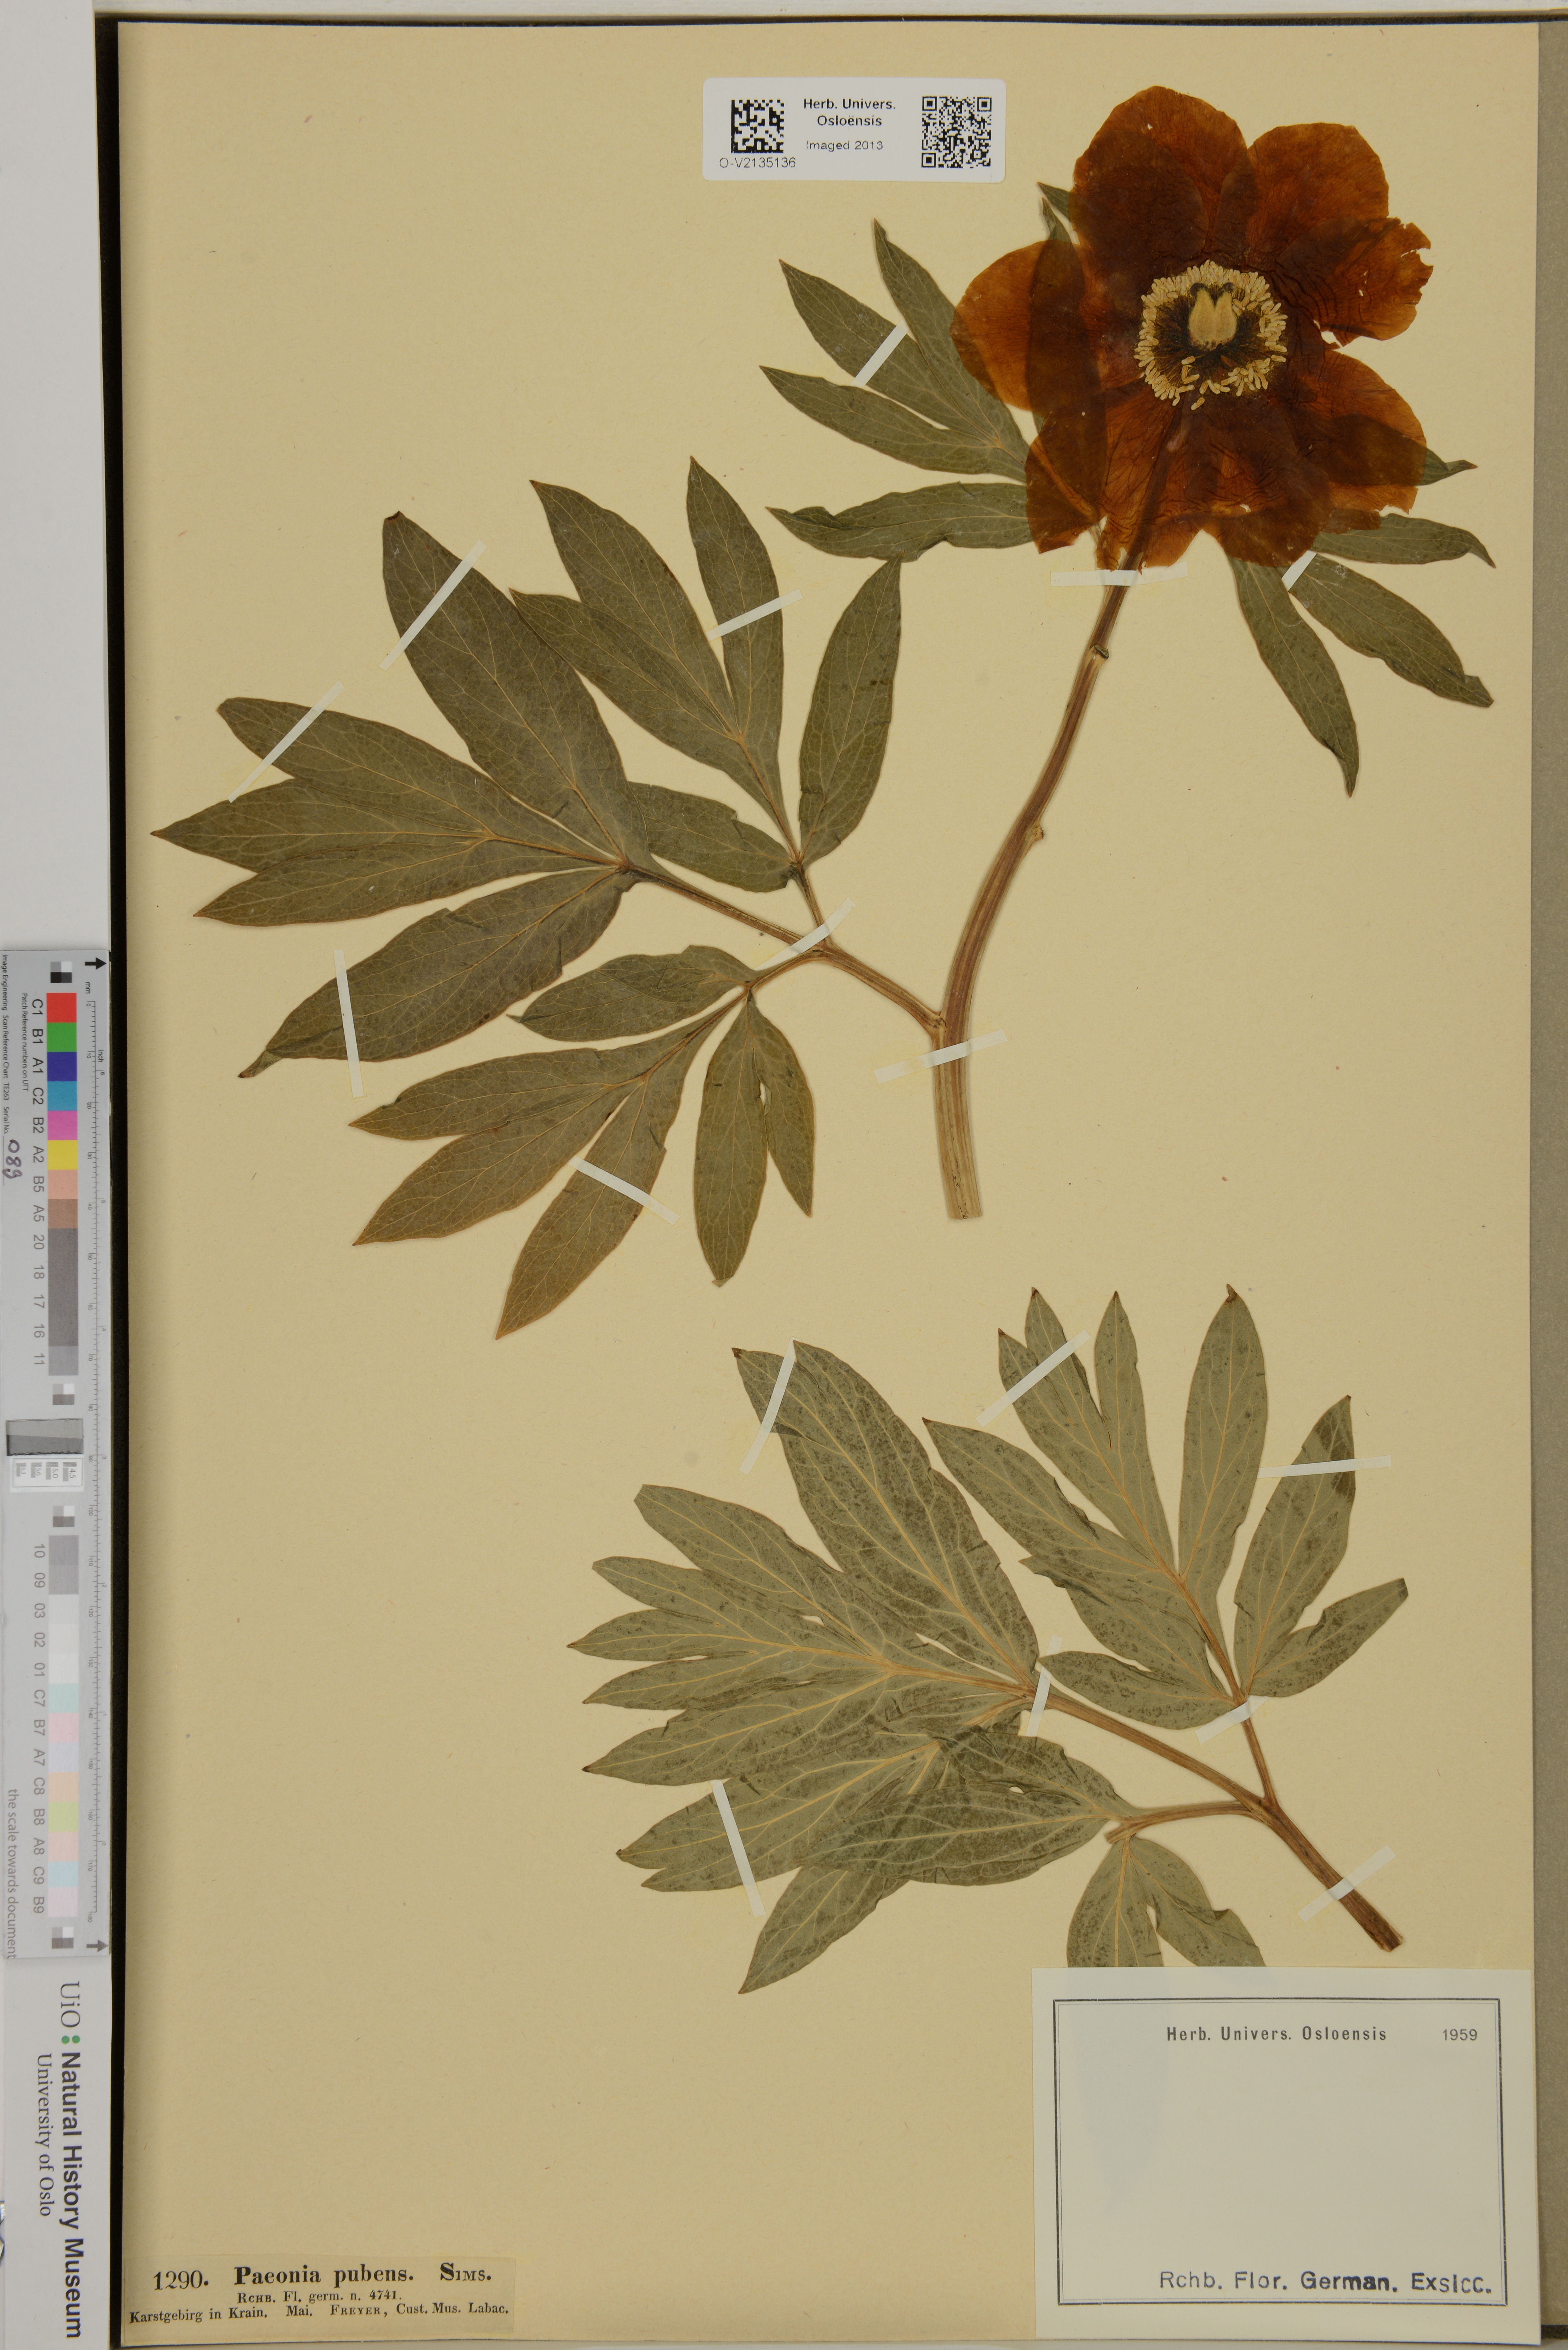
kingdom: Plantae
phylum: Tracheophyta
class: Magnoliopsida
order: Saxifragales
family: Paeoniaceae
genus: Paeonia
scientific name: Paeonia officinalis
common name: Common peony
